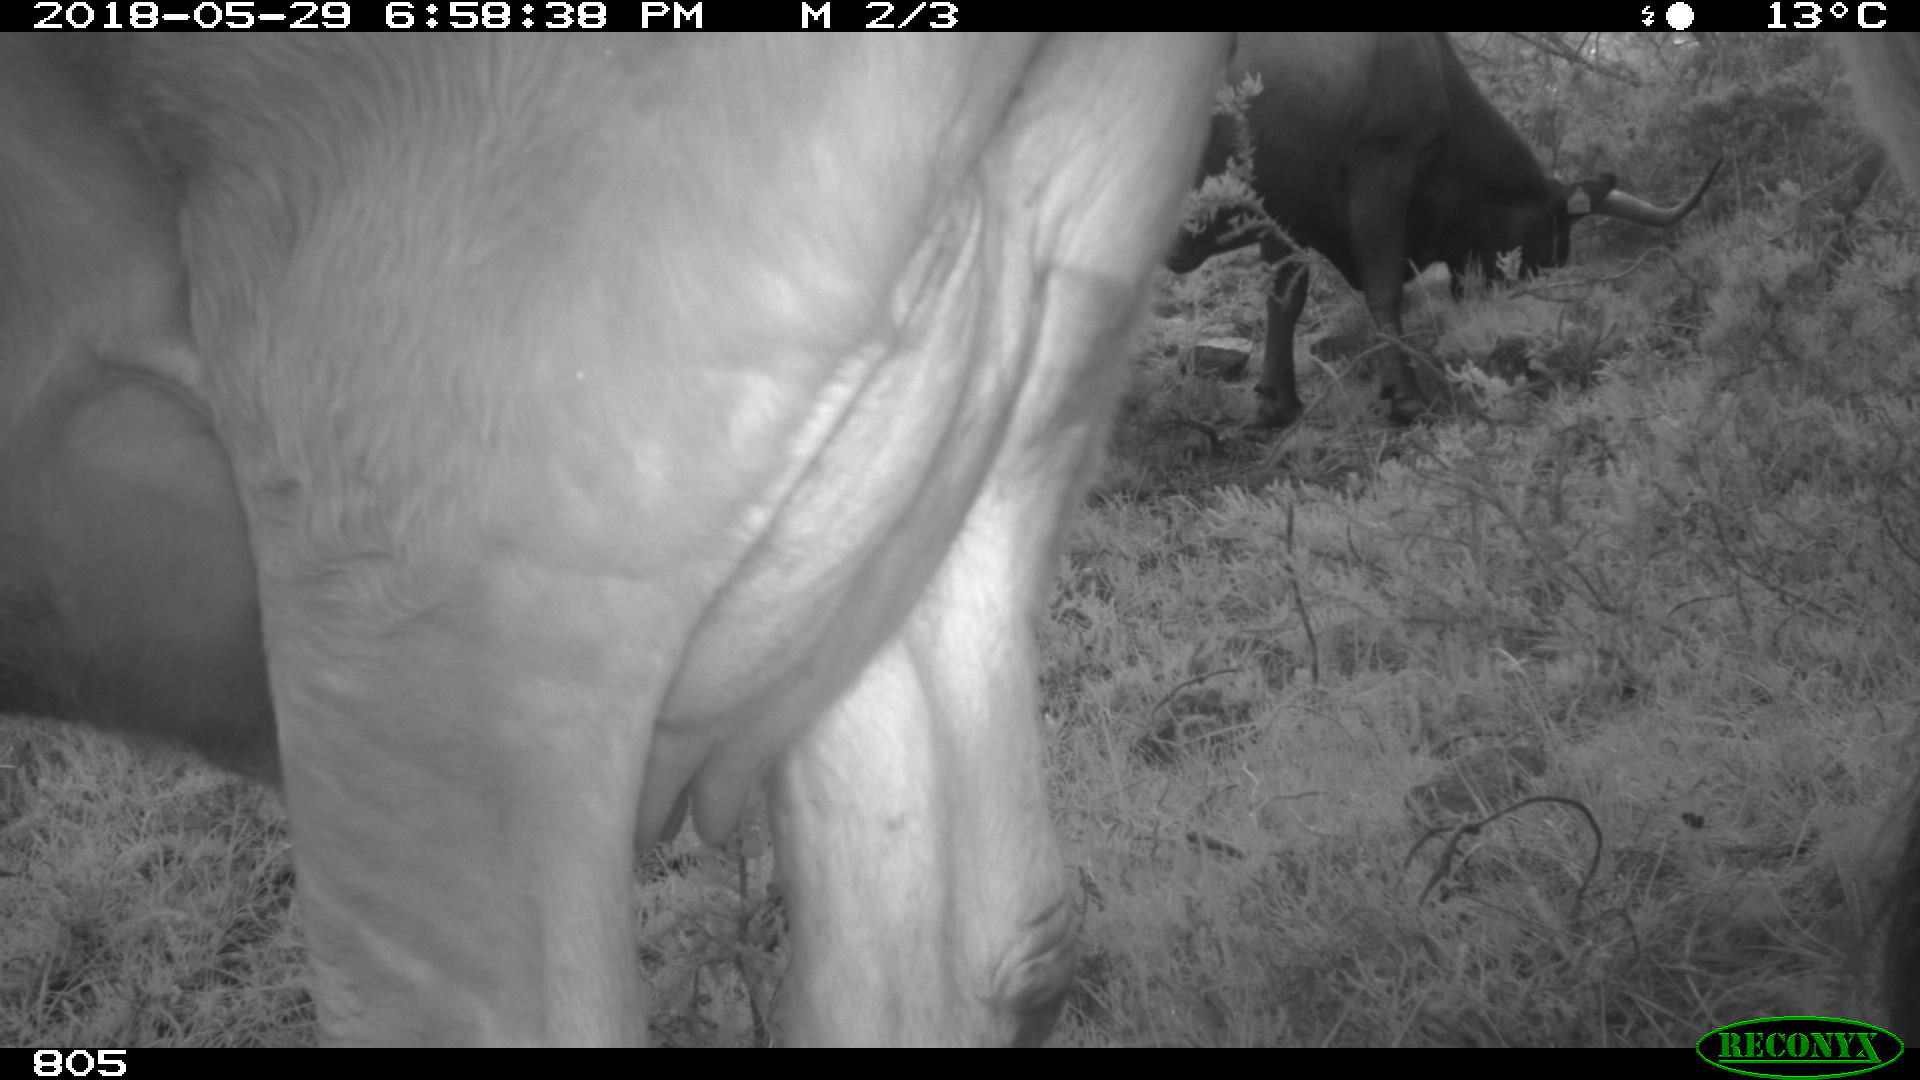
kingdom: Animalia
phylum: Chordata
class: Mammalia
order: Artiodactyla
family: Bovidae
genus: Bos
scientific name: Bos taurus
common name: Domesticated cattle
